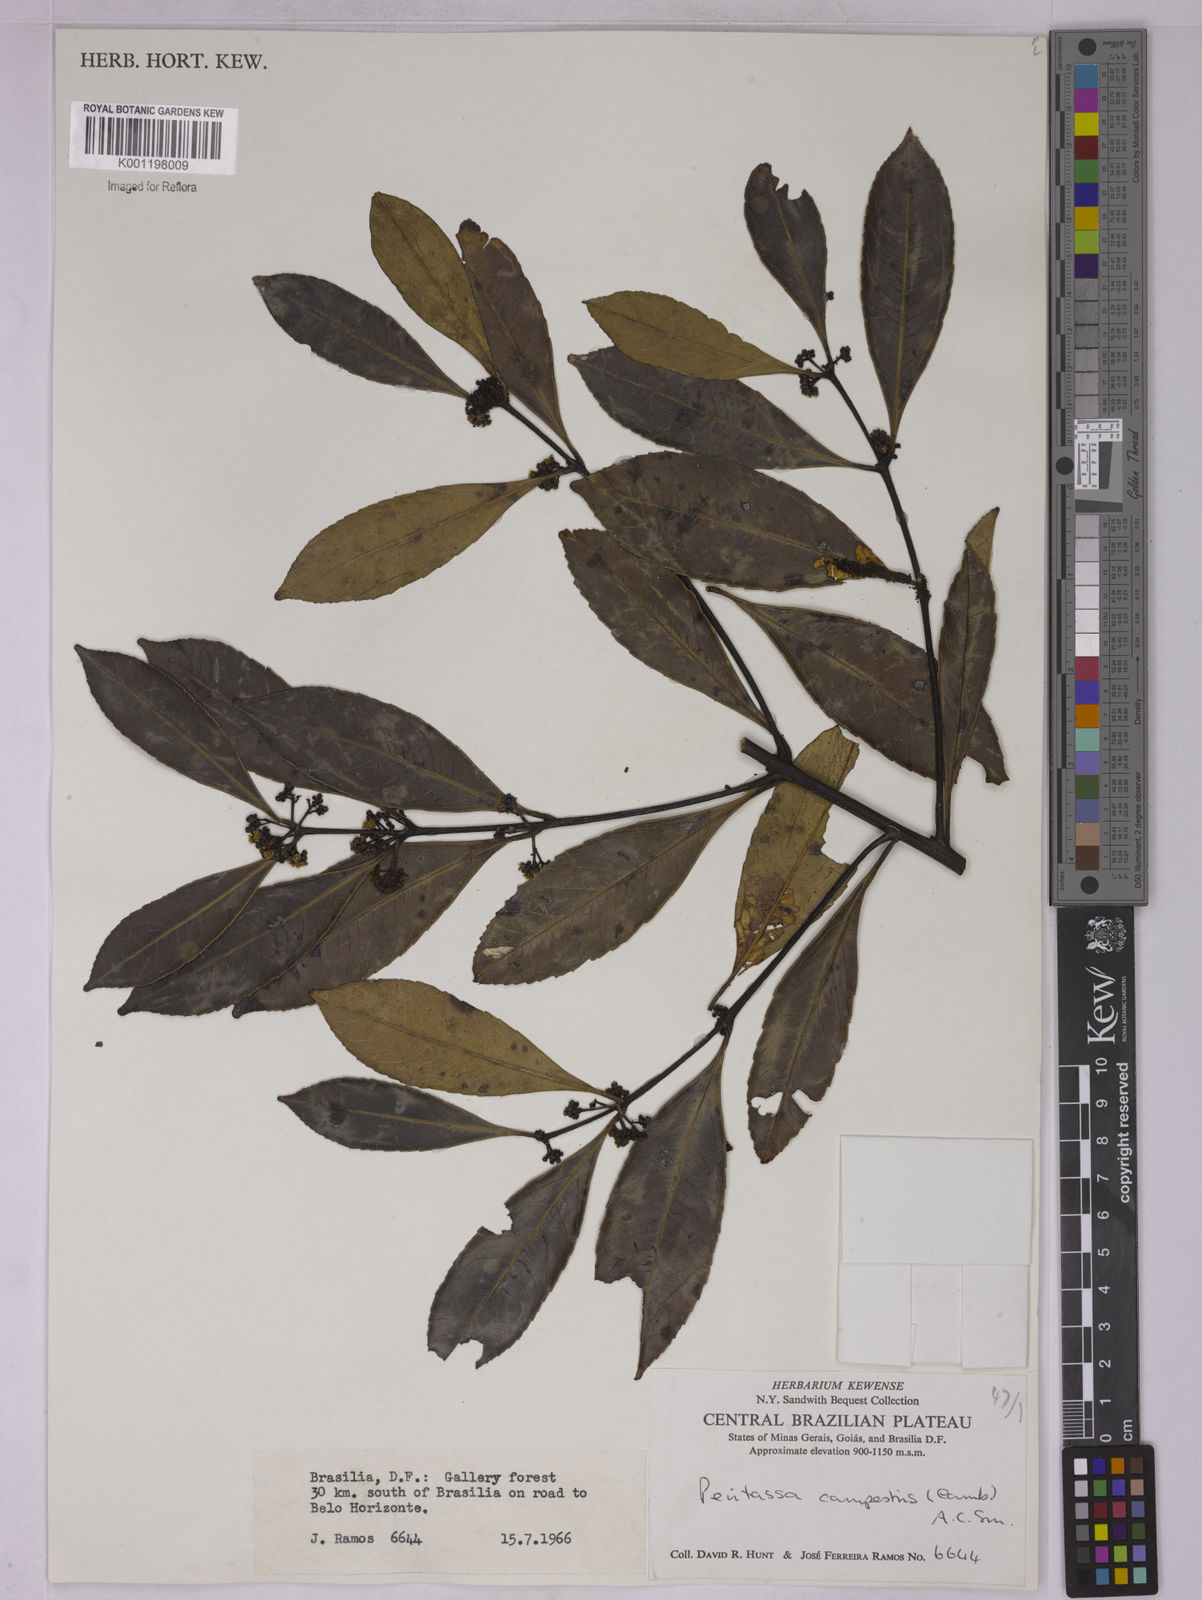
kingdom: Plantae
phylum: Tracheophyta
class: Magnoliopsida
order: Celastrales
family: Celastraceae
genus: Peritassa
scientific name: Peritassa campestris
